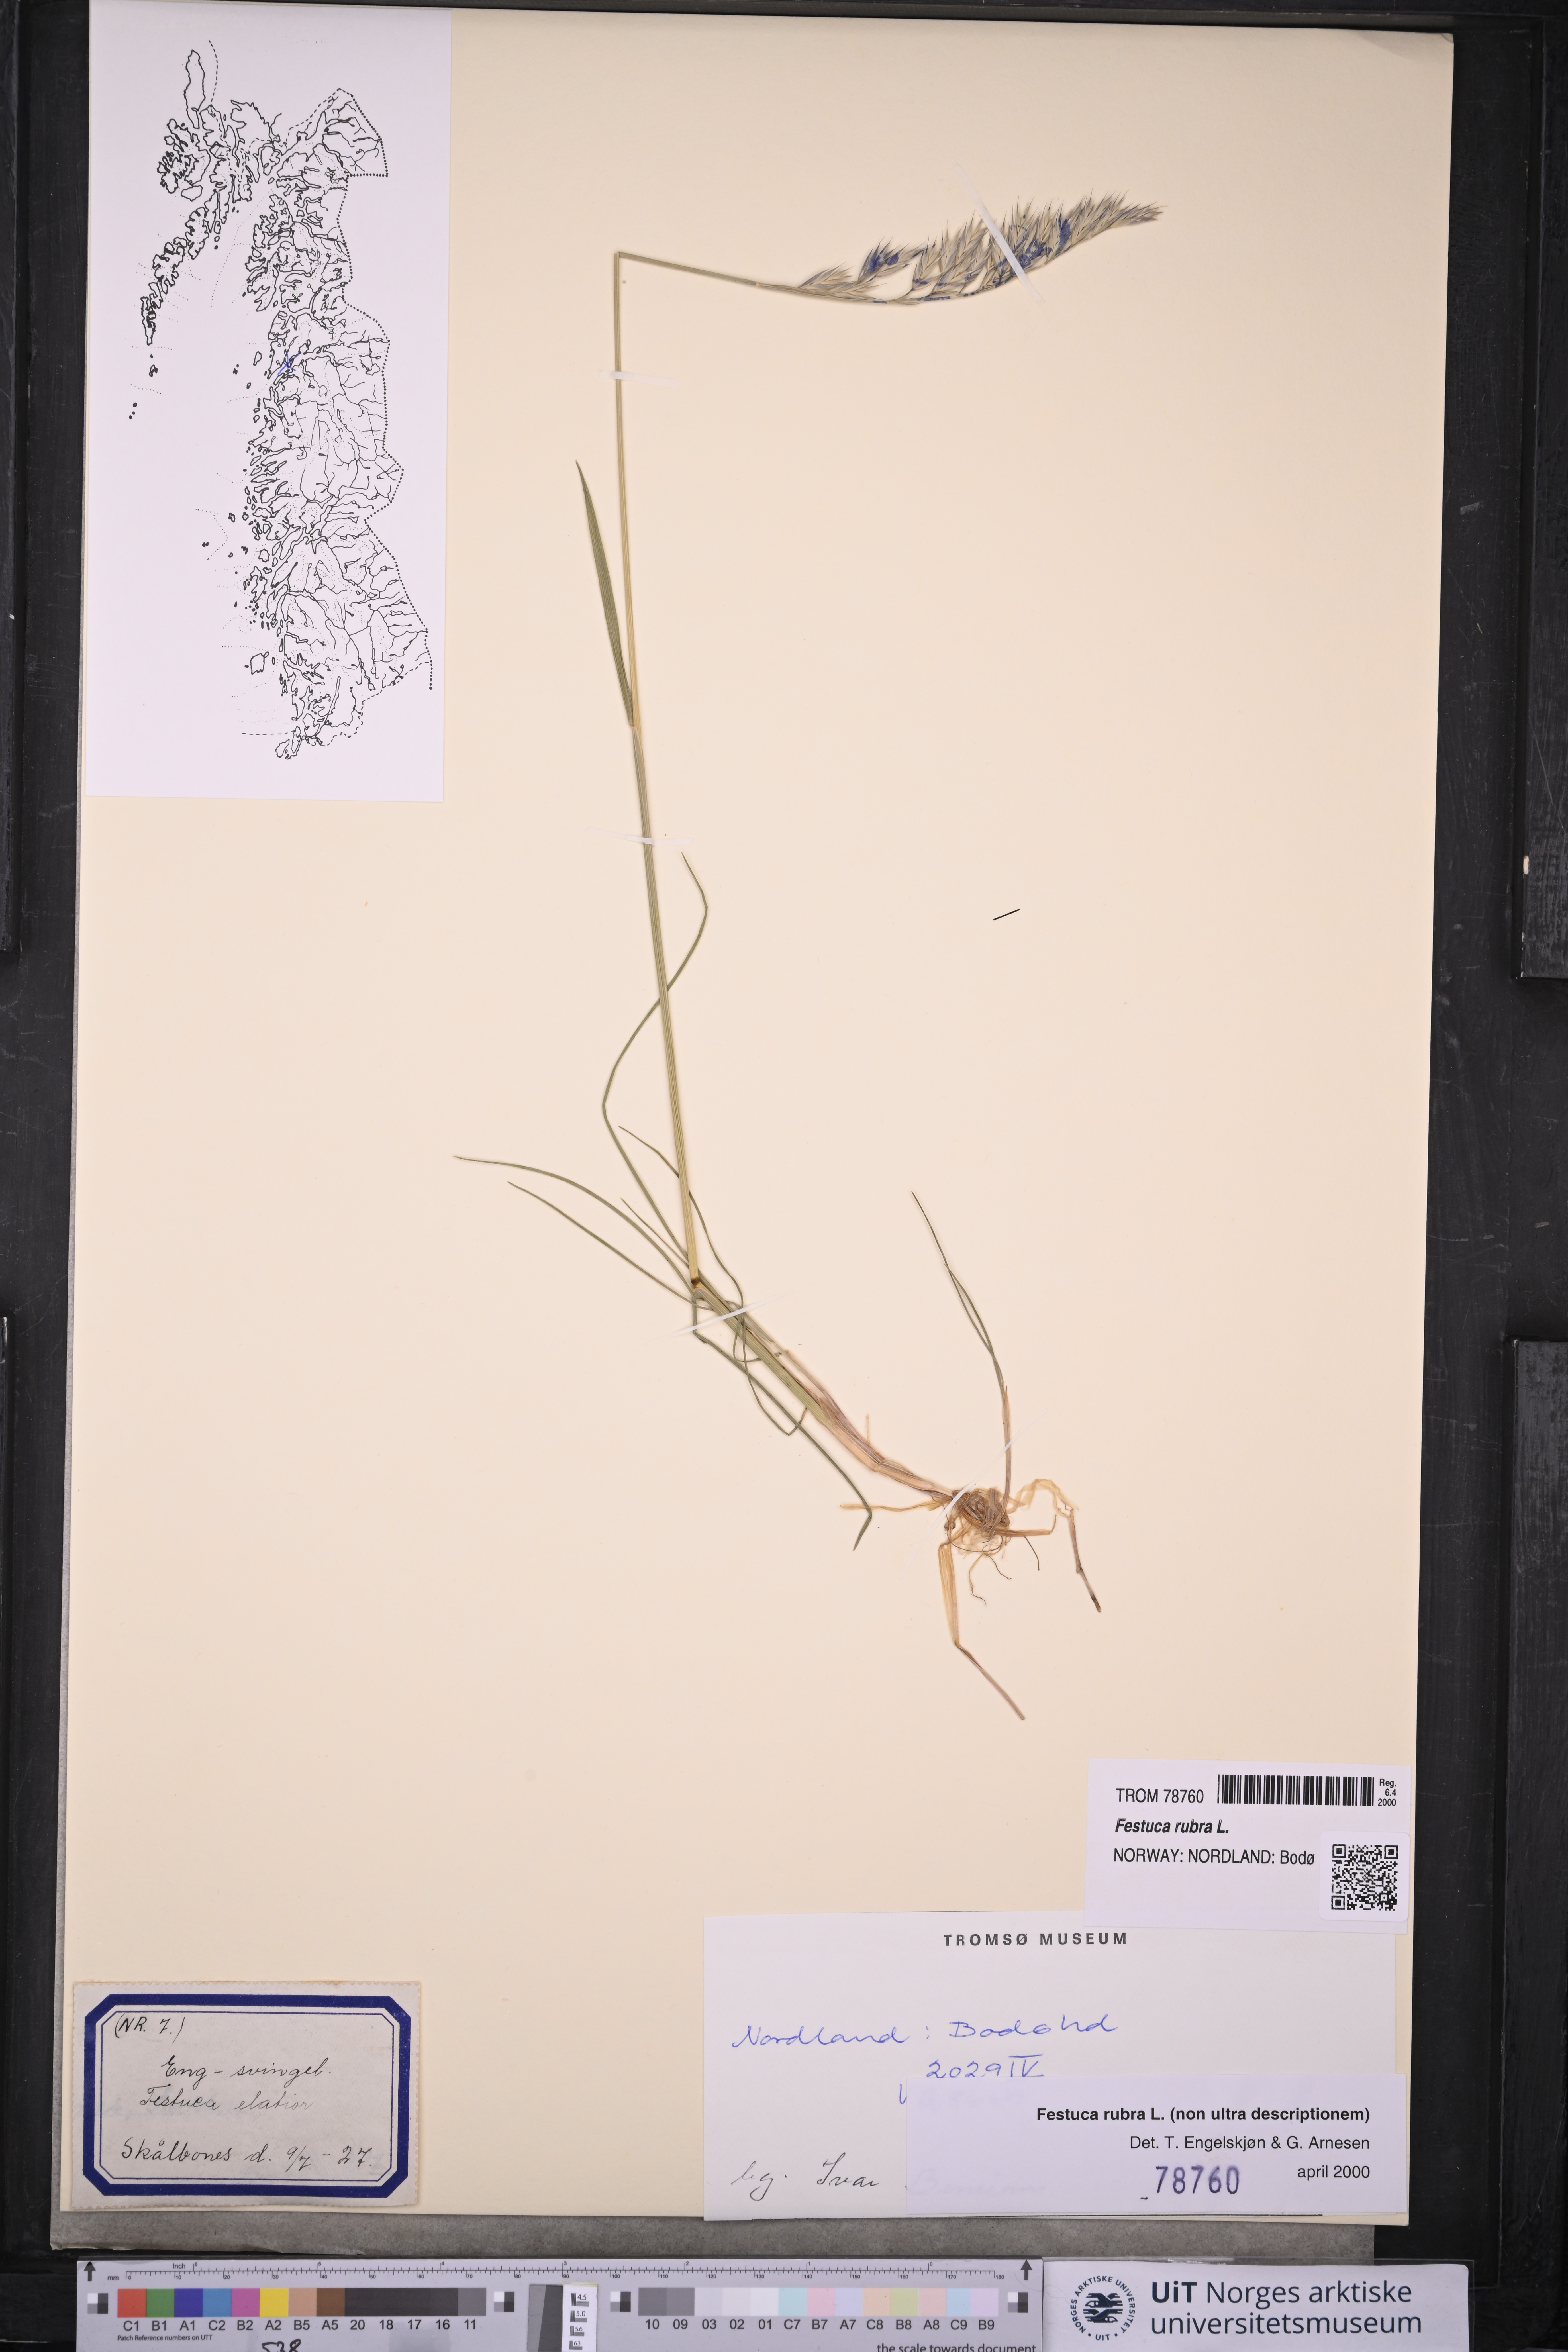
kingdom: Plantae
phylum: Tracheophyta
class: Liliopsida
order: Poales
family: Poaceae
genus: Festuca
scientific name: Festuca rubra
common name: Red fescue
